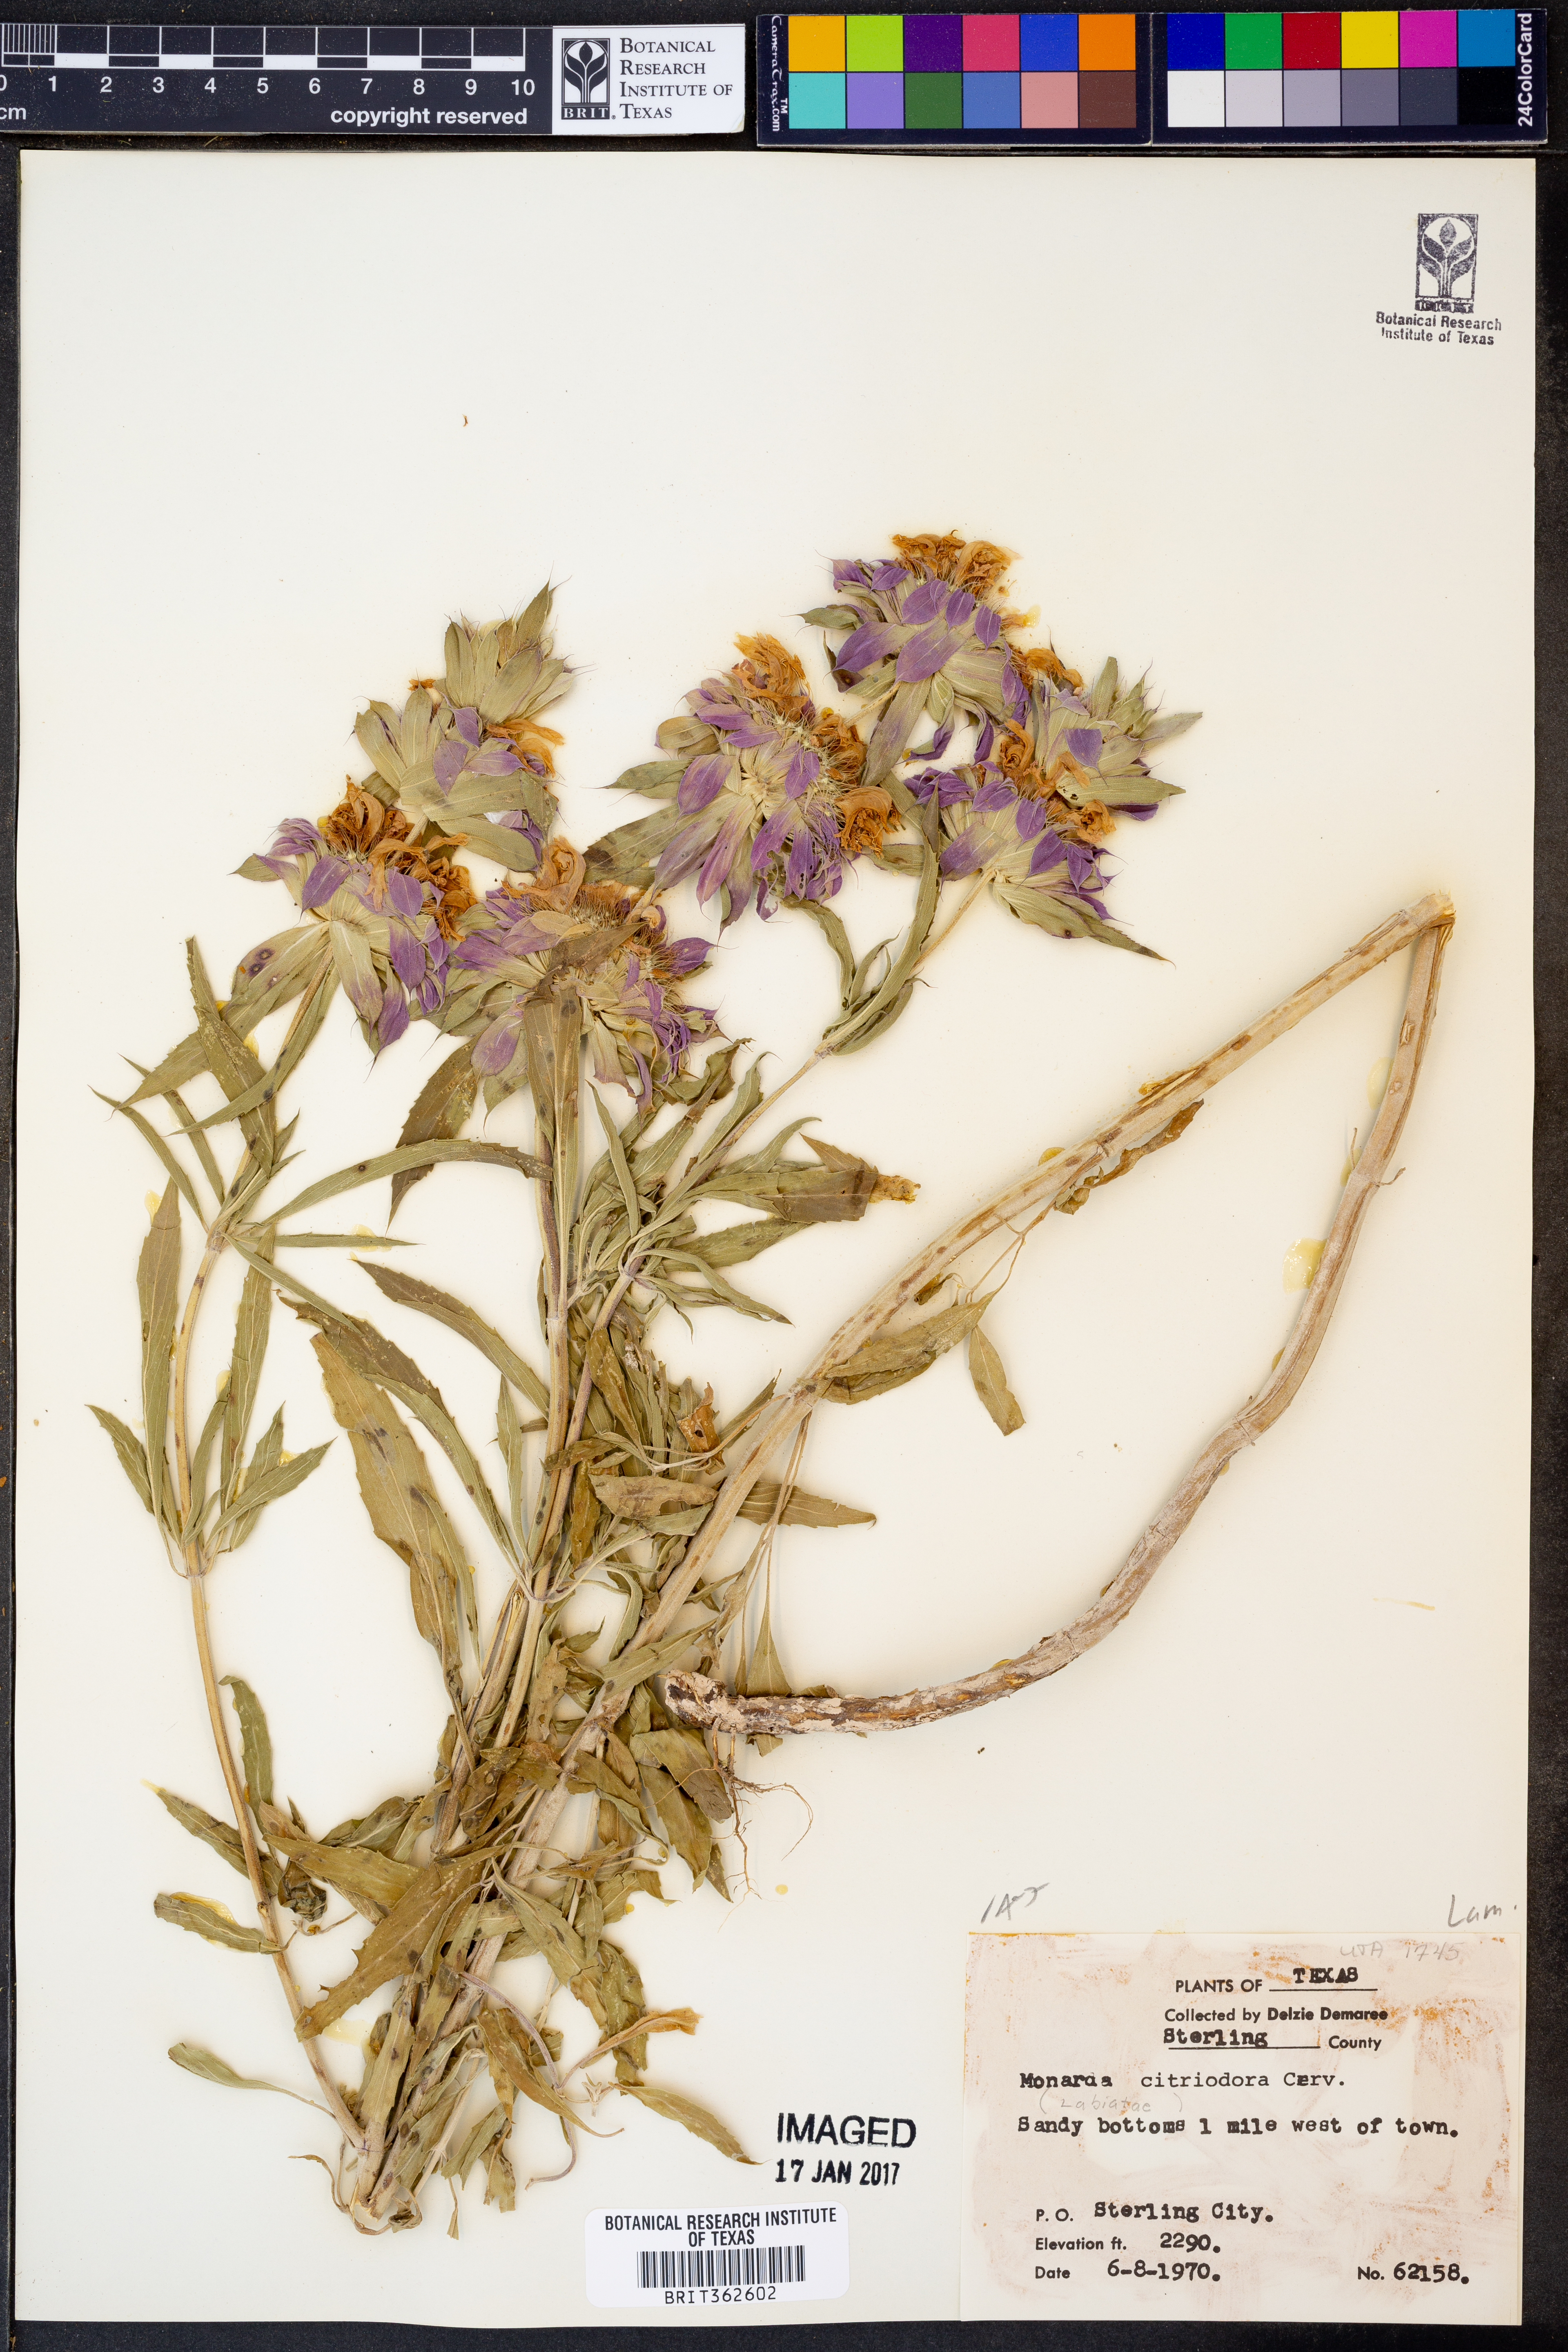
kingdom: Plantae
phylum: Tracheophyta
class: Magnoliopsida
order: Lamiales
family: Lamiaceae
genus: Monarda
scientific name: Monarda citriodora
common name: Lemon beebalm
